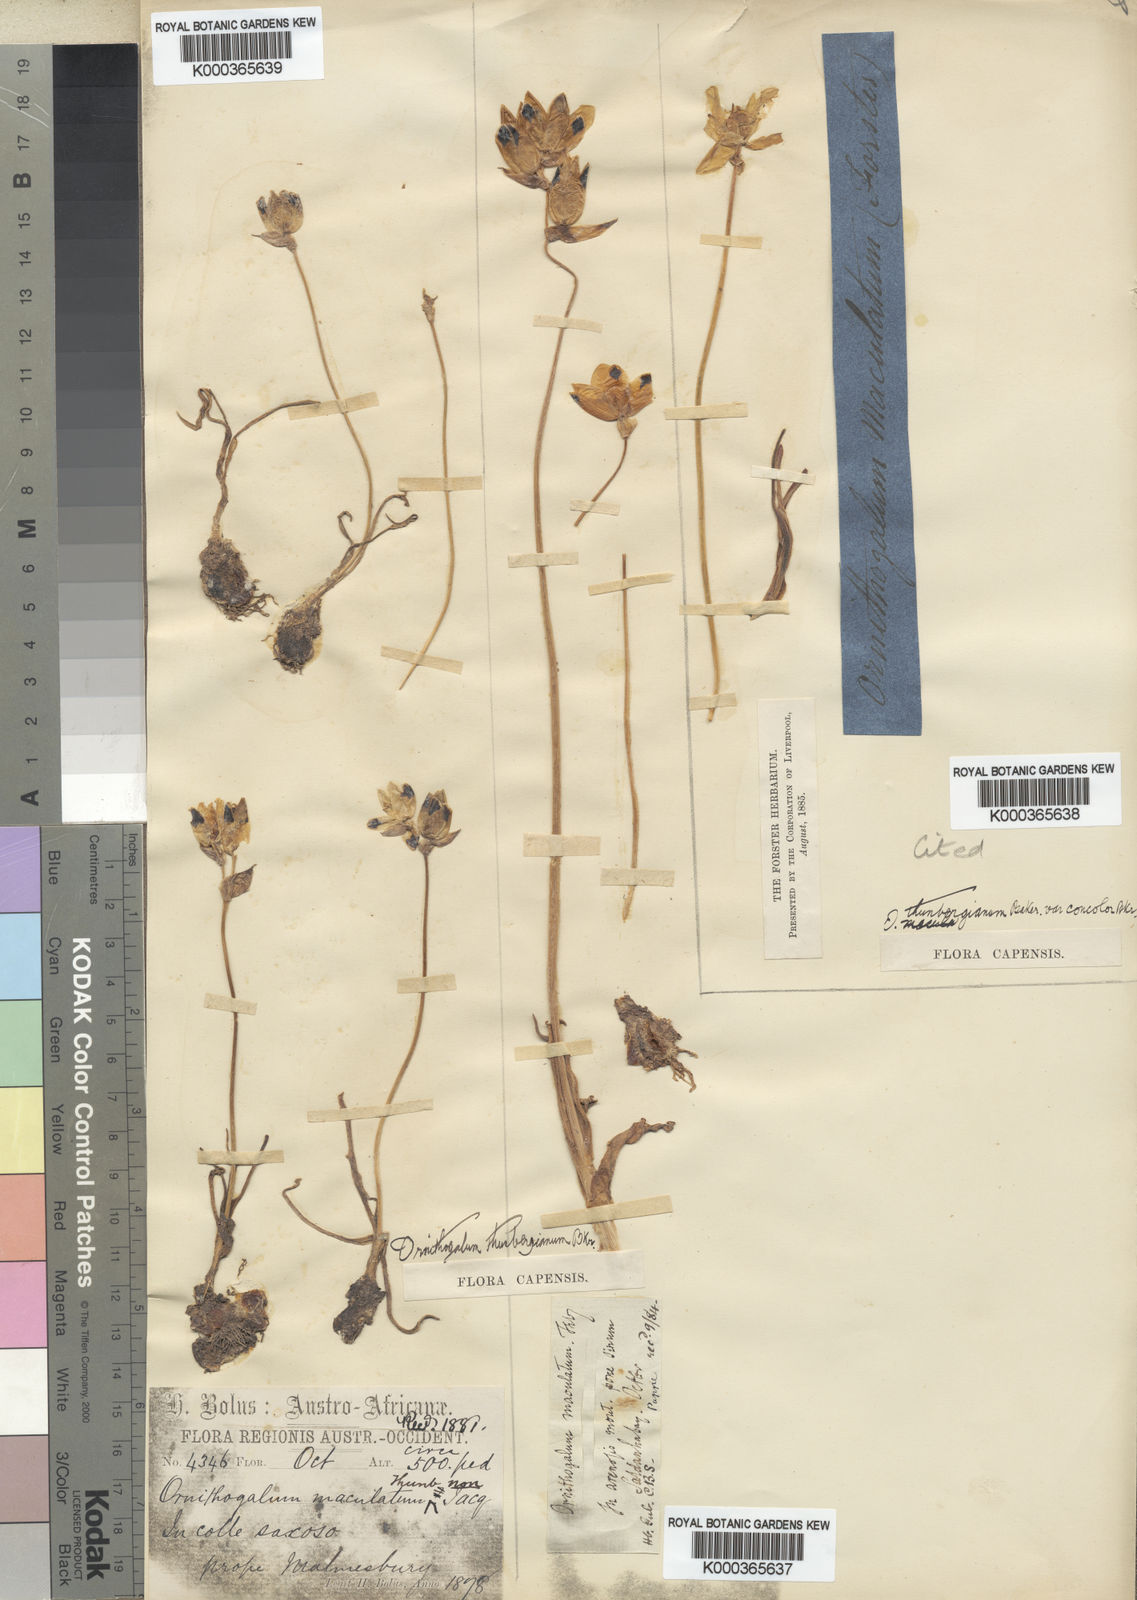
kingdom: Plantae
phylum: Tracheophyta
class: Liliopsida
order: Asparagales
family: Asparagaceae
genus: Ornithogalum
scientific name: Ornithogalum maculatum
